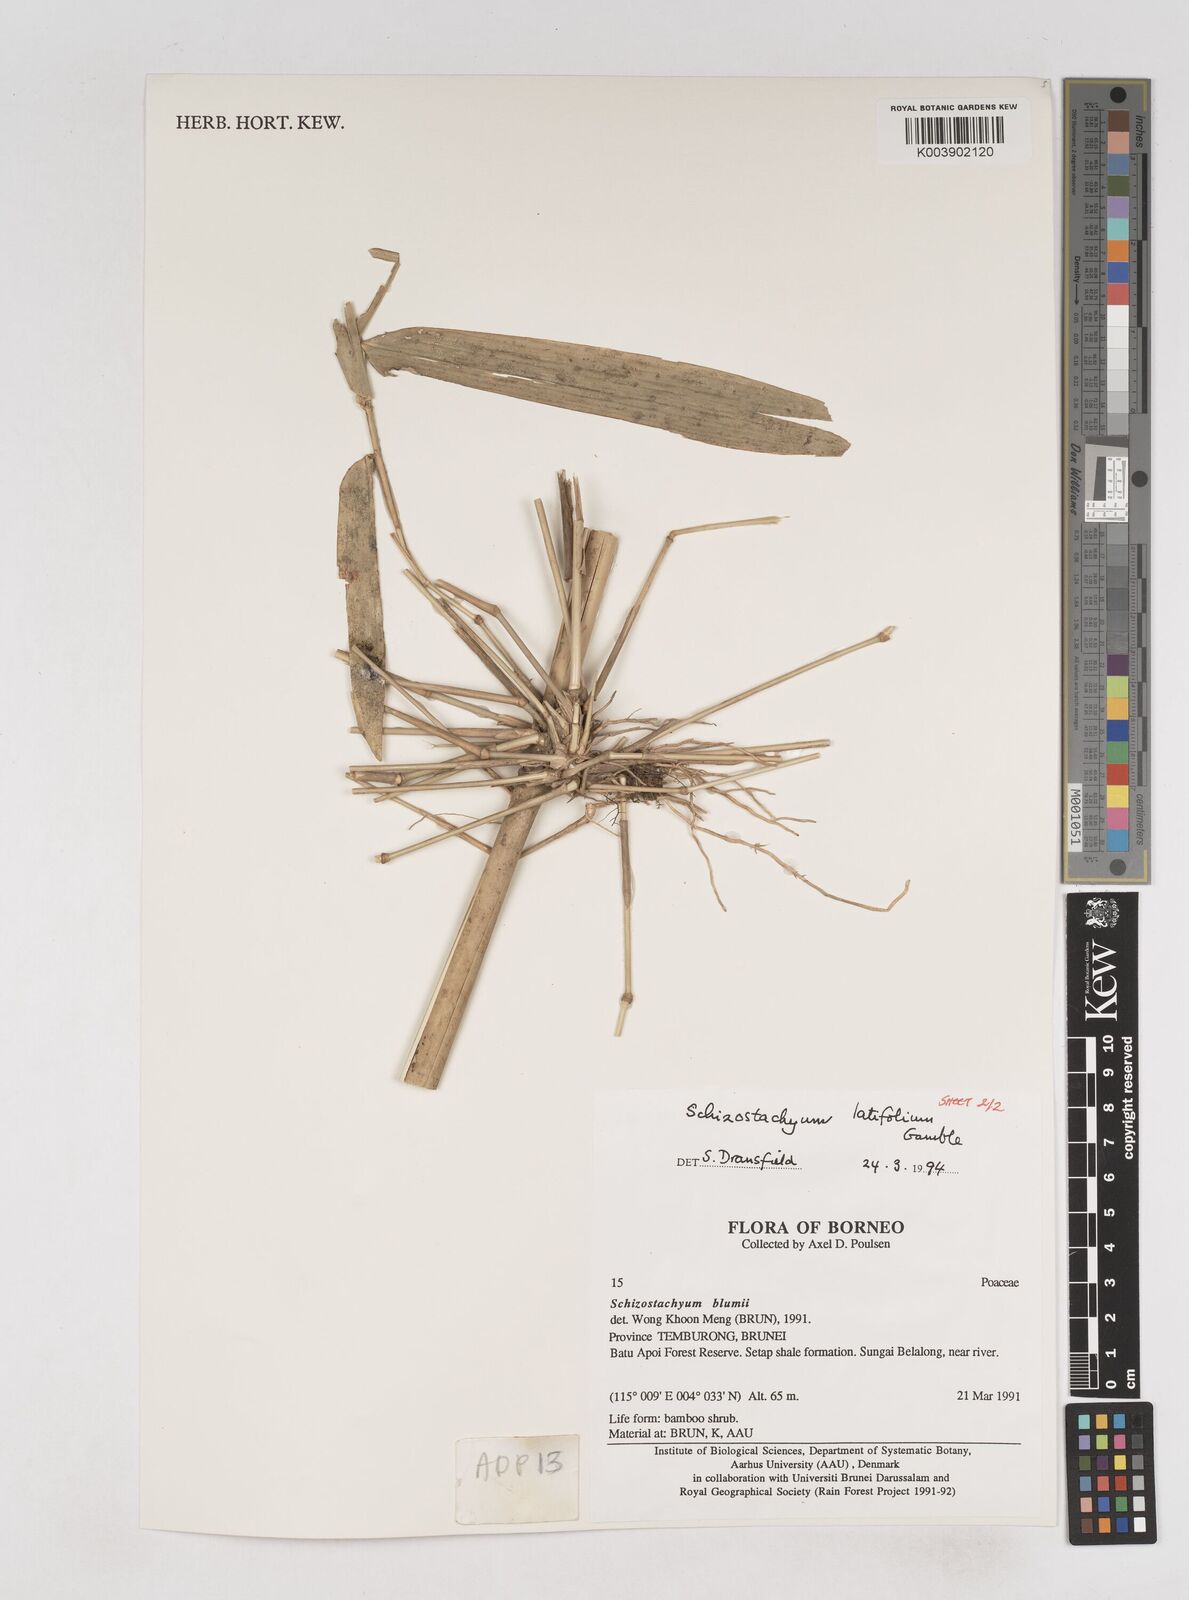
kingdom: Plantae
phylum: Tracheophyta
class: Liliopsida
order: Poales
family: Poaceae
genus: Schizostachyum
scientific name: Schizostachyum
